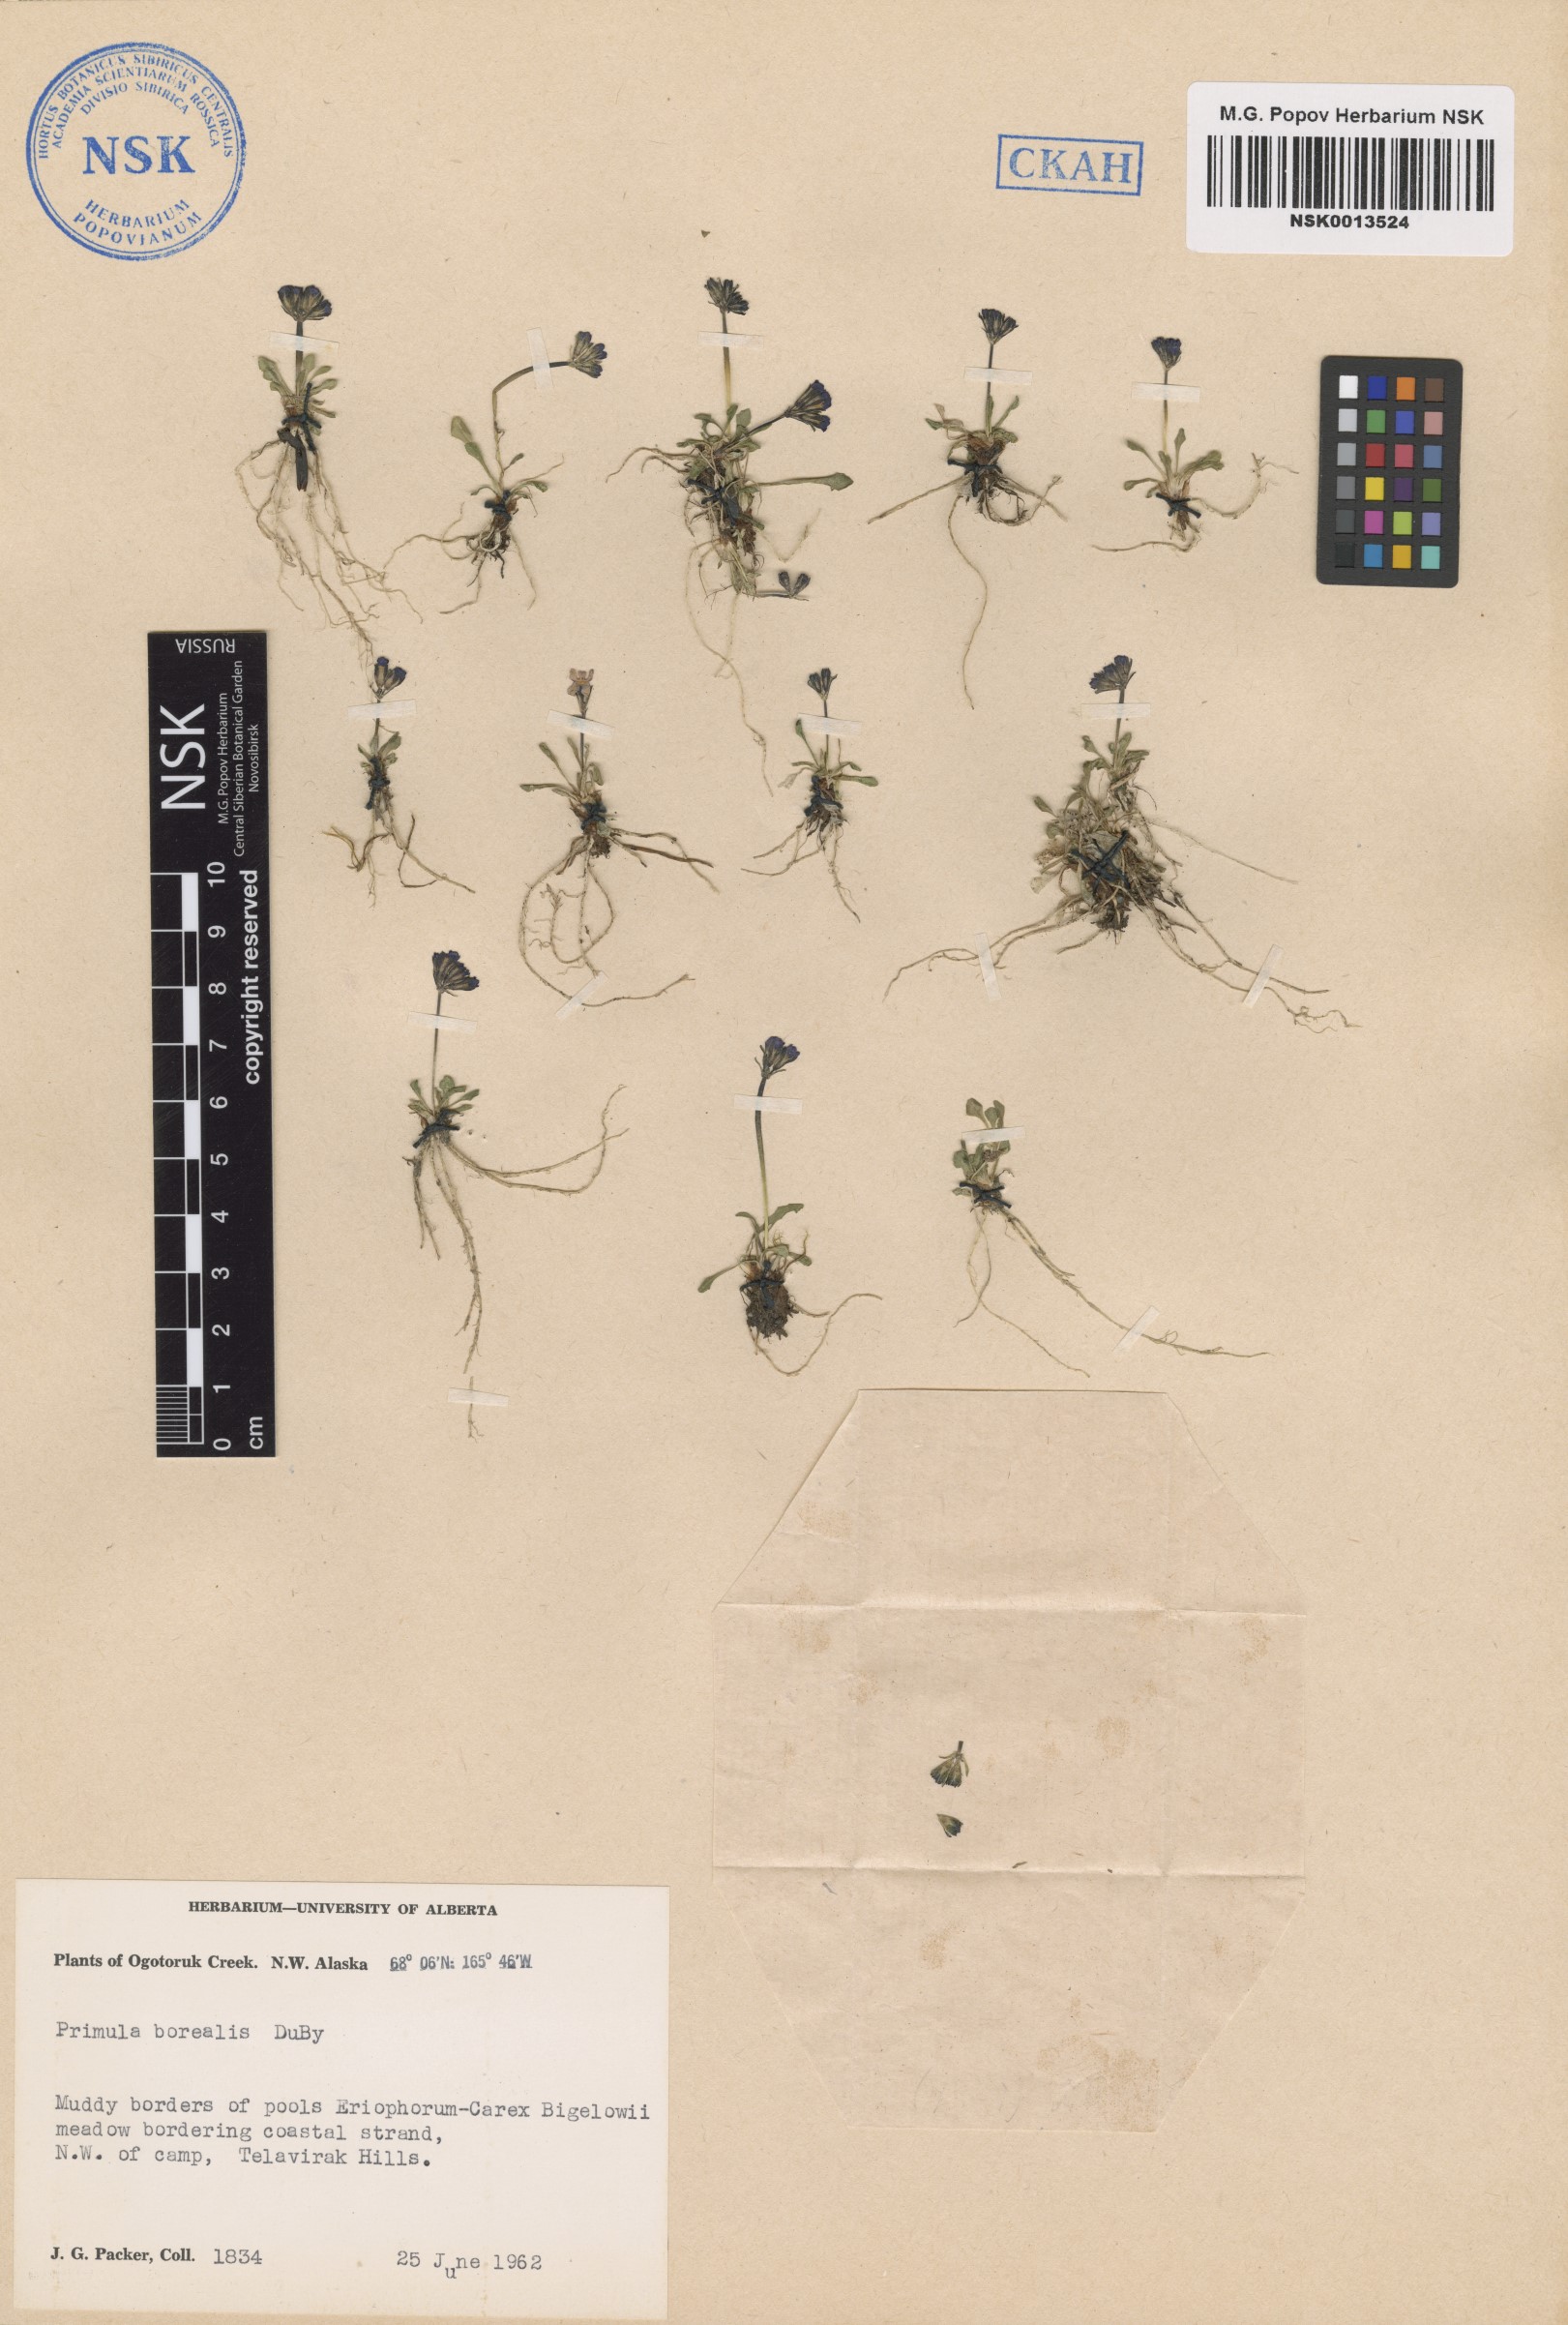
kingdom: Plantae
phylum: Tracheophyta
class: Magnoliopsida
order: Ericales
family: Primulaceae
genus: Primula
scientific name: Primula borealis
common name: Northern primrose
